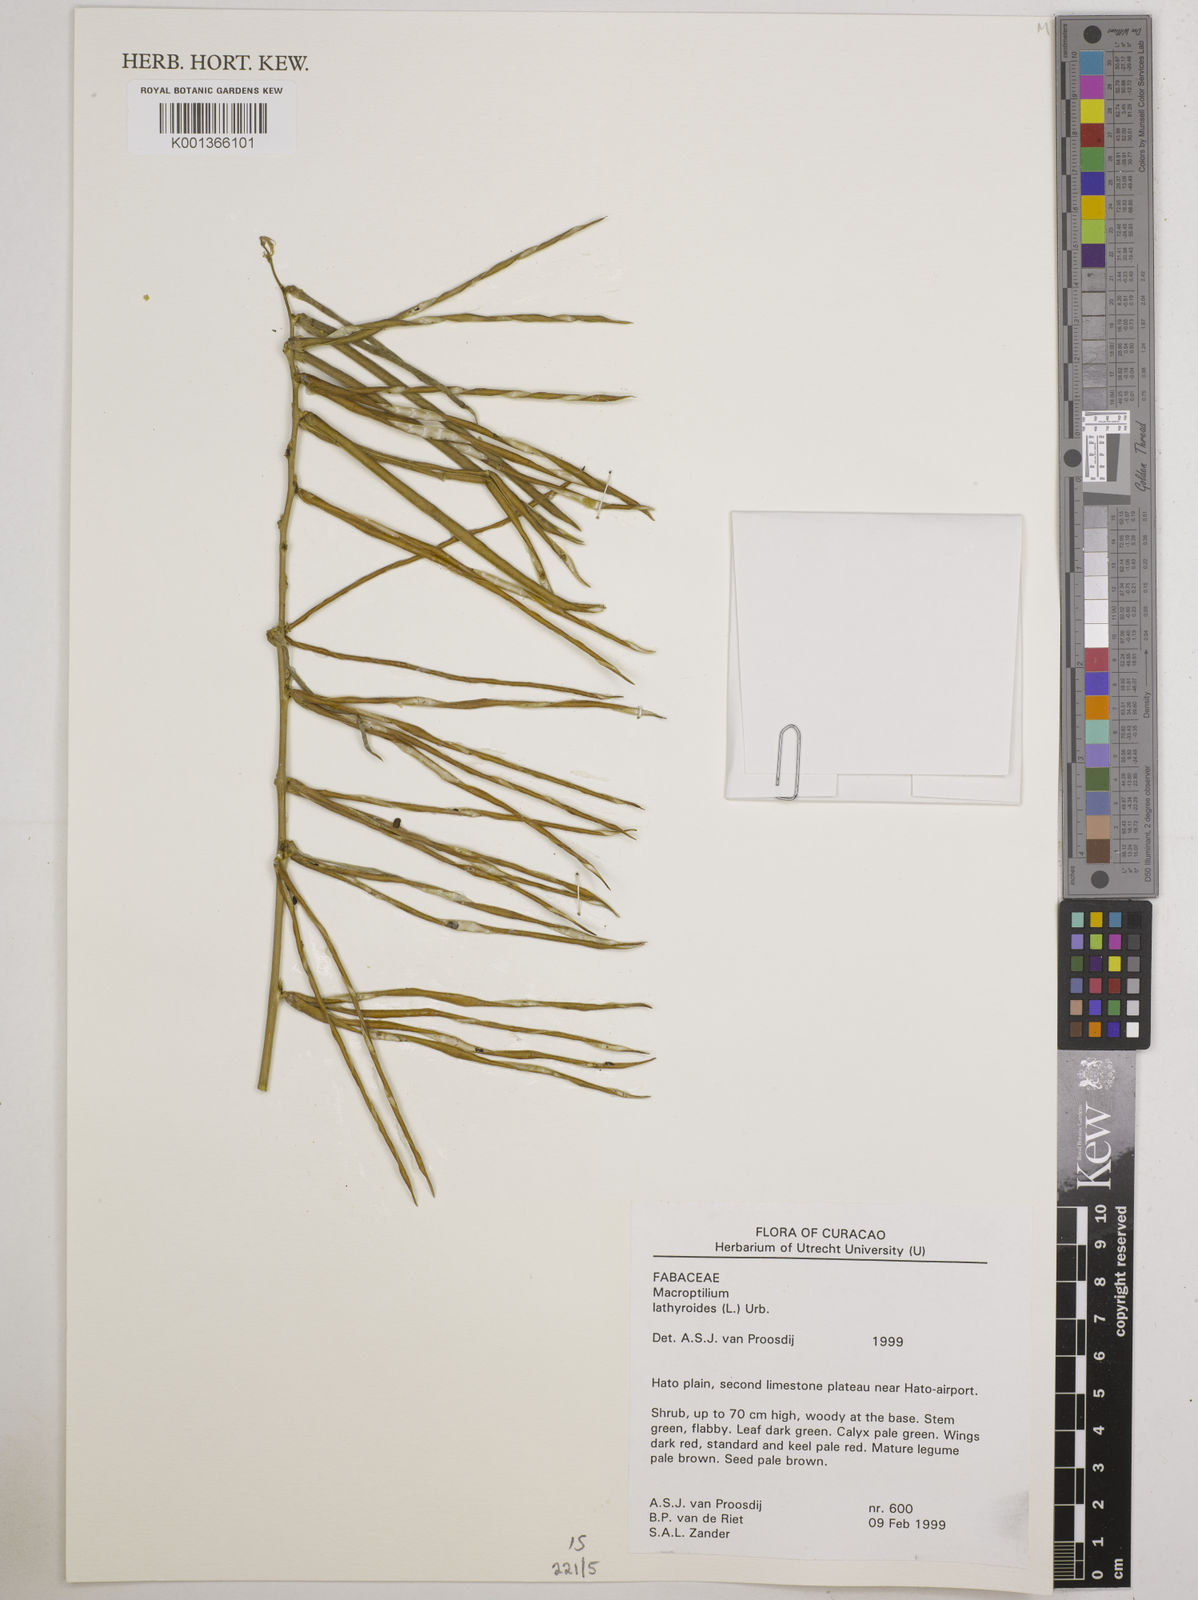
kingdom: Plantae
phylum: Tracheophyta
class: Magnoliopsida
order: Fabales
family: Fabaceae
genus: Macroptilium
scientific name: Macroptilium lathyroides
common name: Wild bushbean
